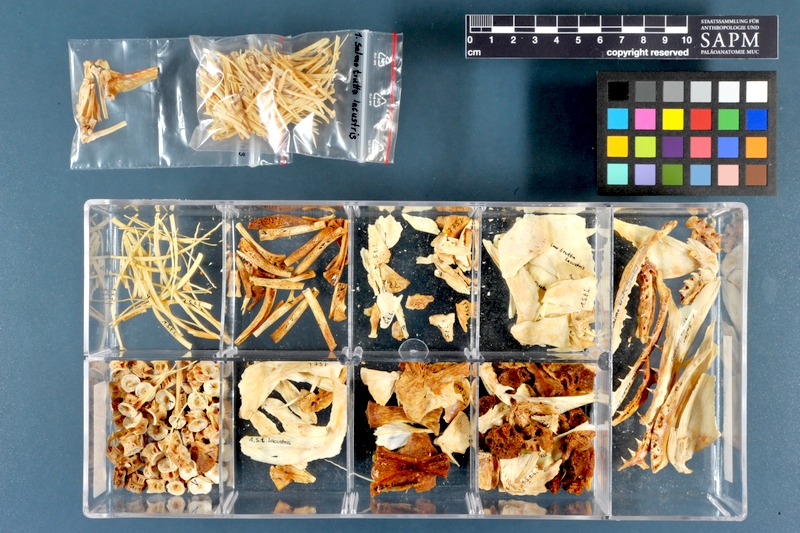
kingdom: Animalia
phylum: Chordata
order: Salmoniformes
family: Salmonidae
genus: Salmo
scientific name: Salmo trutta
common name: Brown trout
